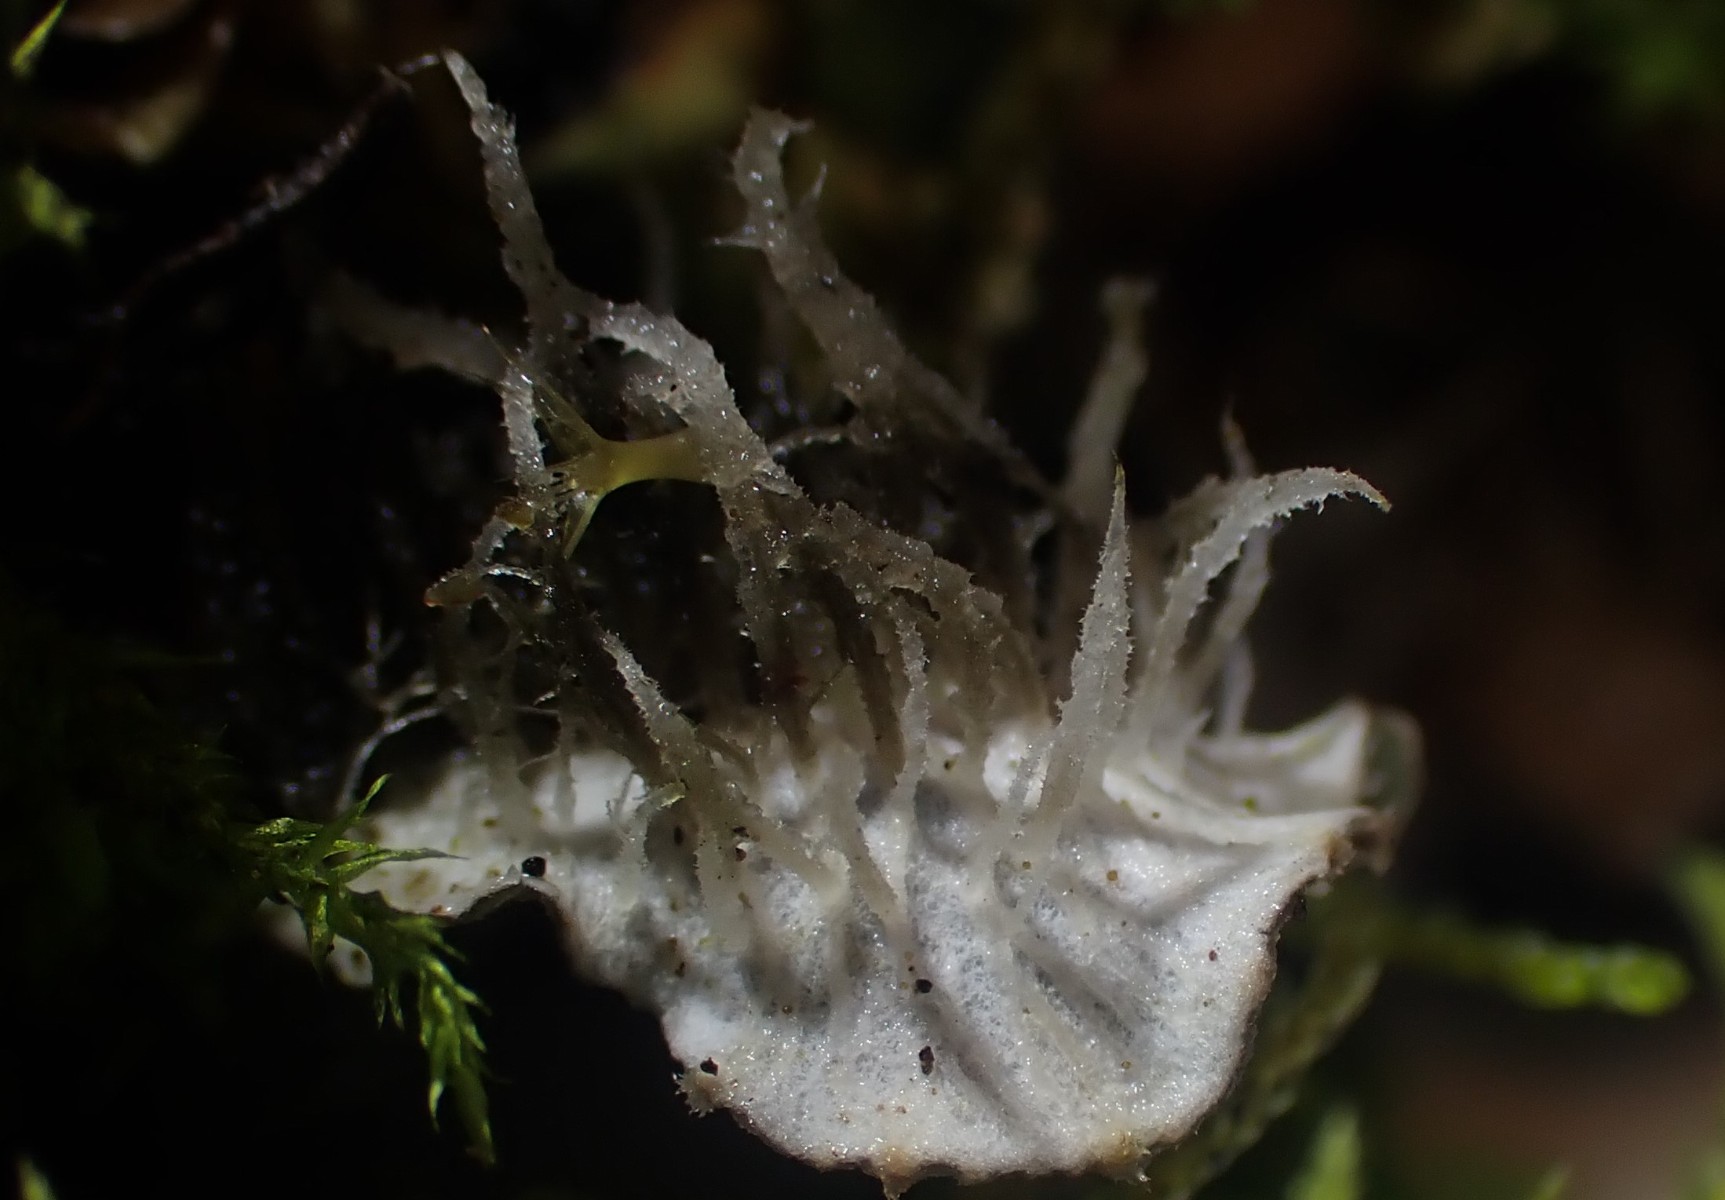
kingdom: Fungi
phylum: Ascomycota
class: Lecanoromycetes
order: Peltigerales
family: Peltigeraceae
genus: Peltigera
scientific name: Peltigera membranacea
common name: tynd skjoldlav
